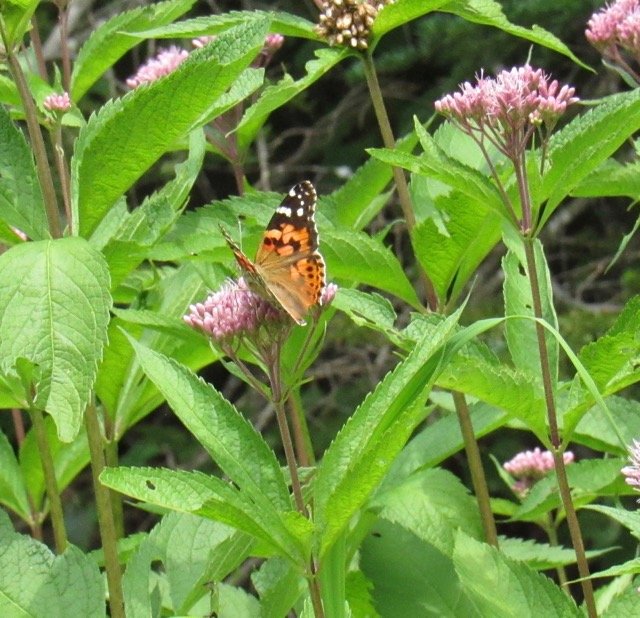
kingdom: Animalia
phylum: Arthropoda
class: Insecta
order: Lepidoptera
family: Nymphalidae
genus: Vanessa
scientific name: Vanessa cardui
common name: Painted Lady
